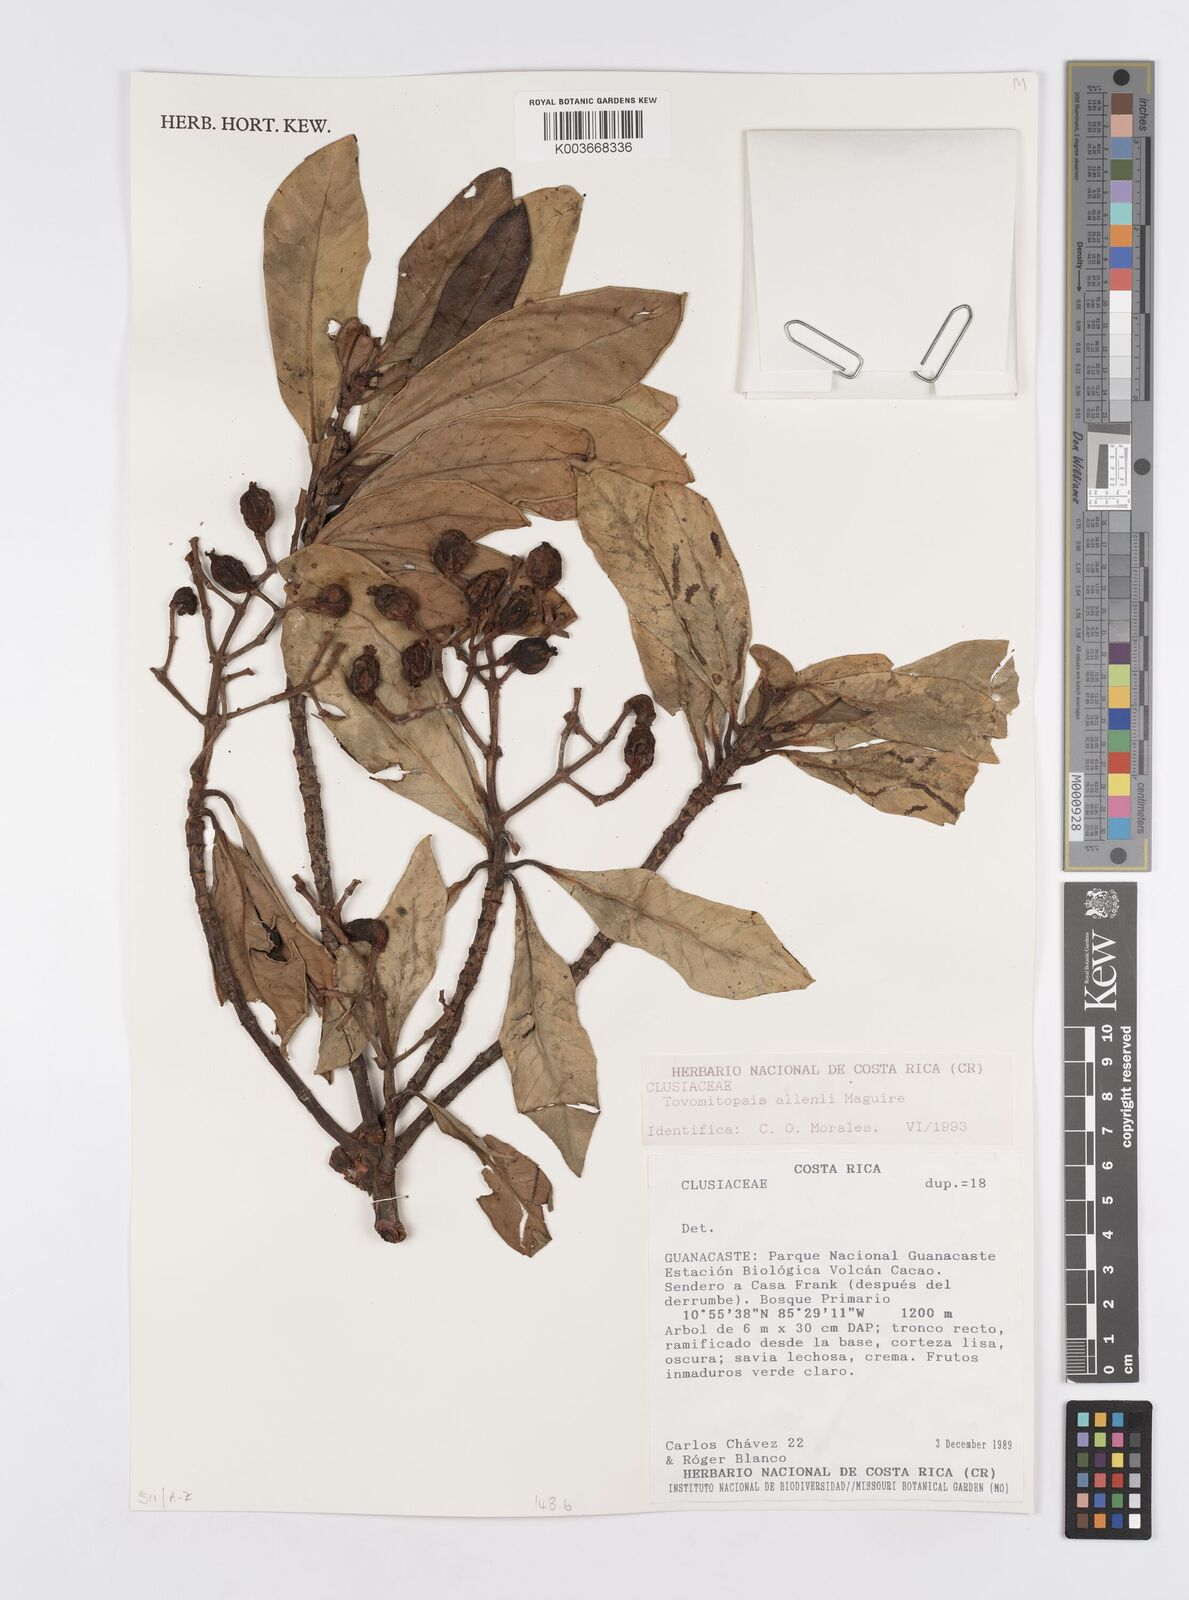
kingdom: Plantae
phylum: Tracheophyta
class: Magnoliopsida
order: Malpighiales
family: Clusiaceae
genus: Chrysochlamys
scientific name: Chrysochlamys allenii
